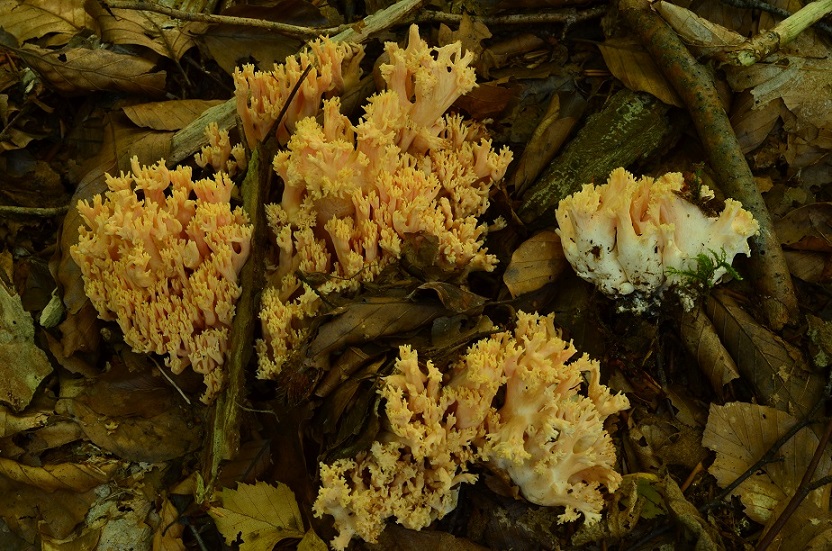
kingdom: Fungi
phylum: Basidiomycota
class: Agaricomycetes
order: Gomphales
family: Gomphaceae
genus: Ramaria
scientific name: Ramaria formosa
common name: smuk koralsvamp
